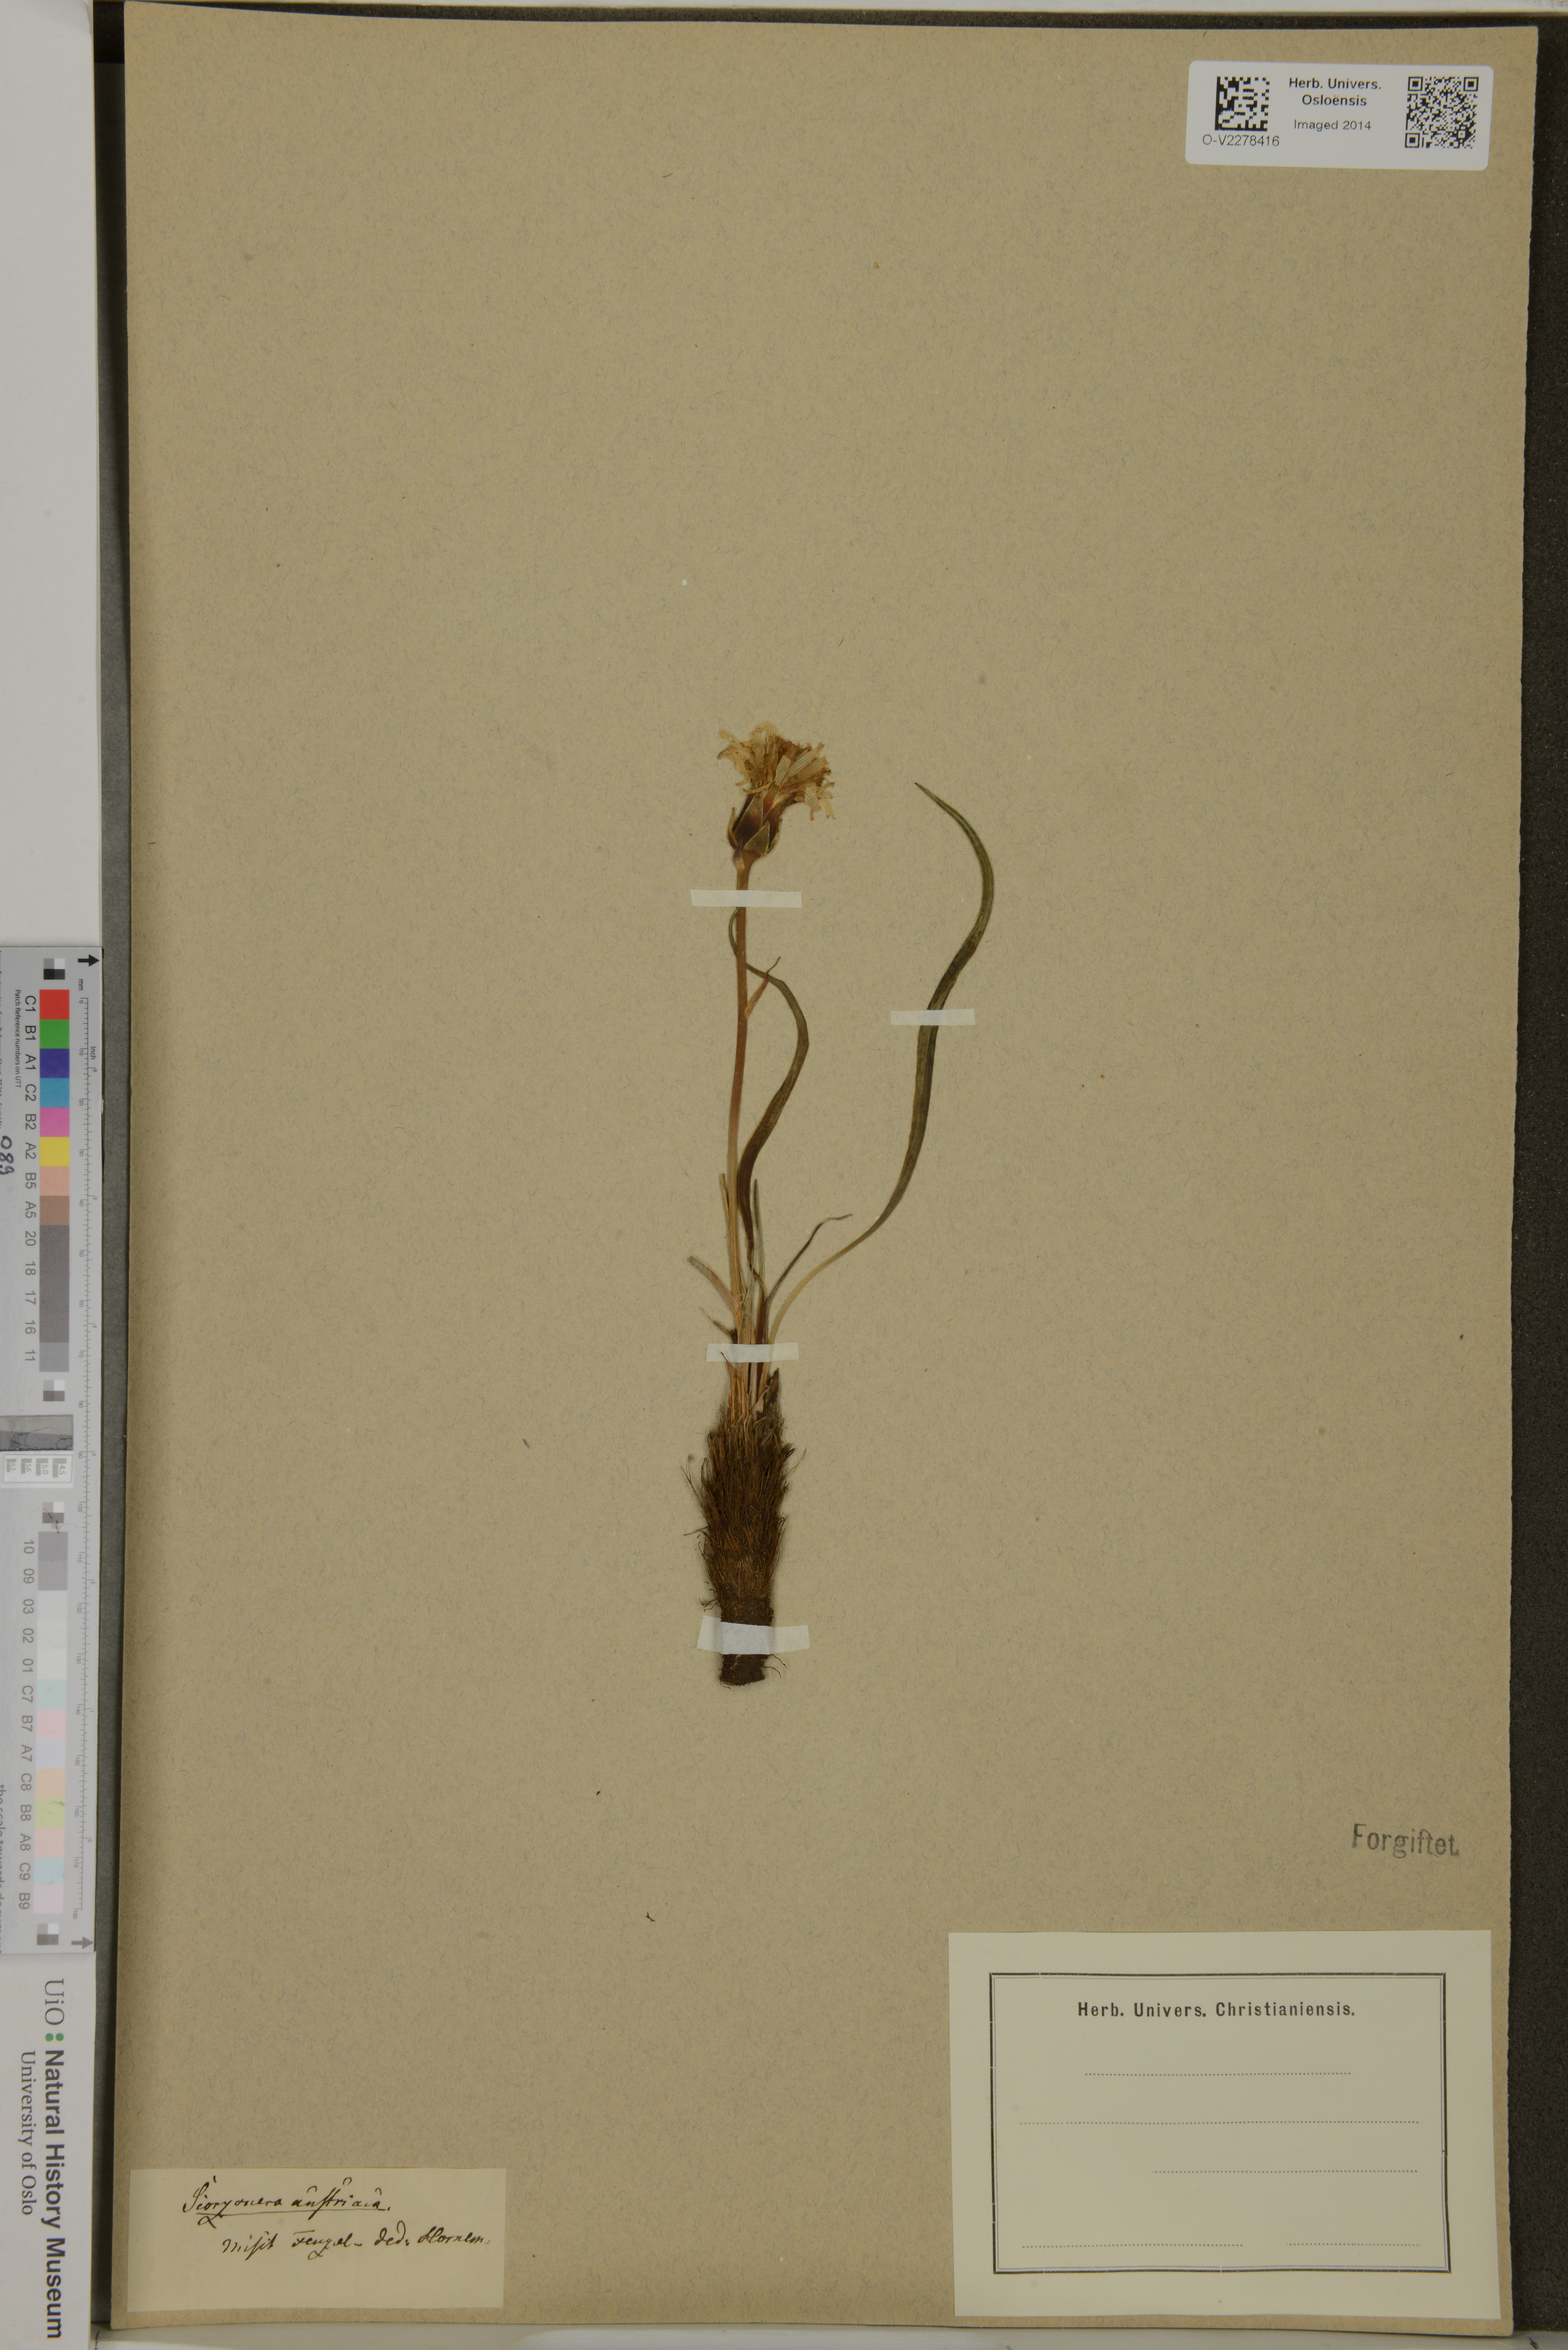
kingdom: Plantae
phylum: Tracheophyta
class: Magnoliopsida
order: Asterales
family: Asteraceae
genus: Scorzonera
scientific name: Scorzonera austriaca
